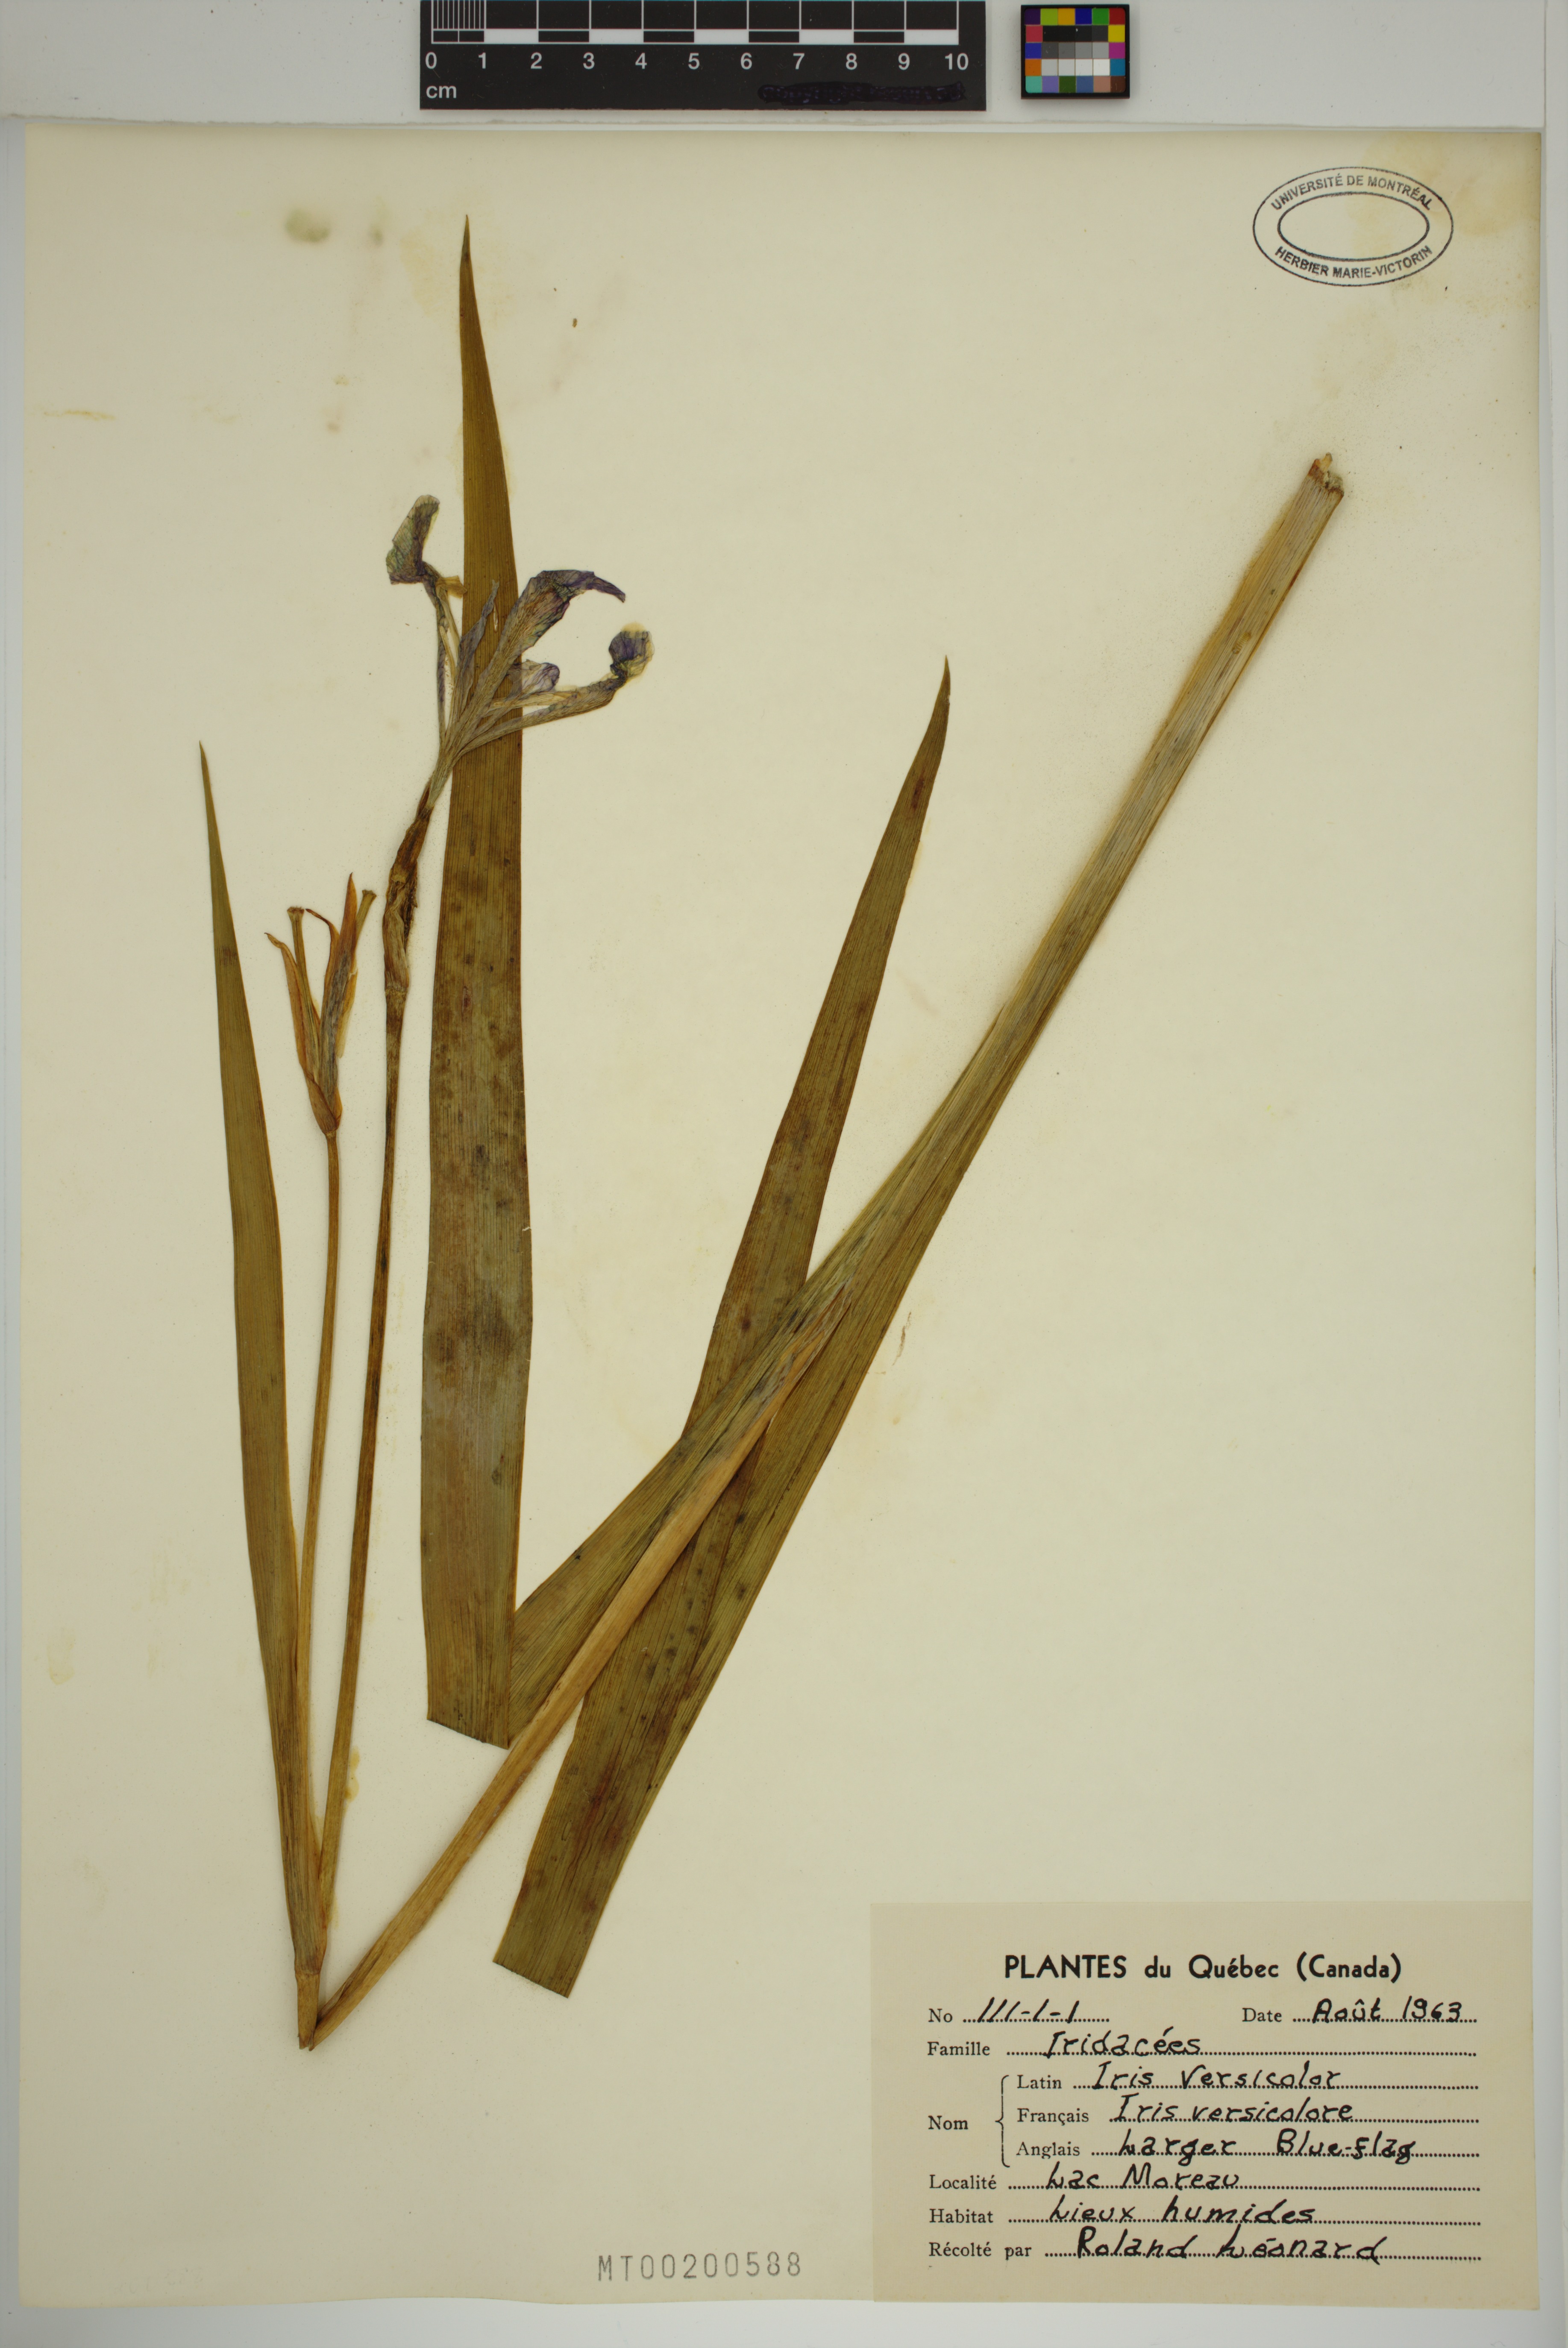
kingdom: Plantae
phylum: Tracheophyta
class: Liliopsida
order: Asparagales
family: Iridaceae
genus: Iris
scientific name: Iris versicolor
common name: Purple iris
